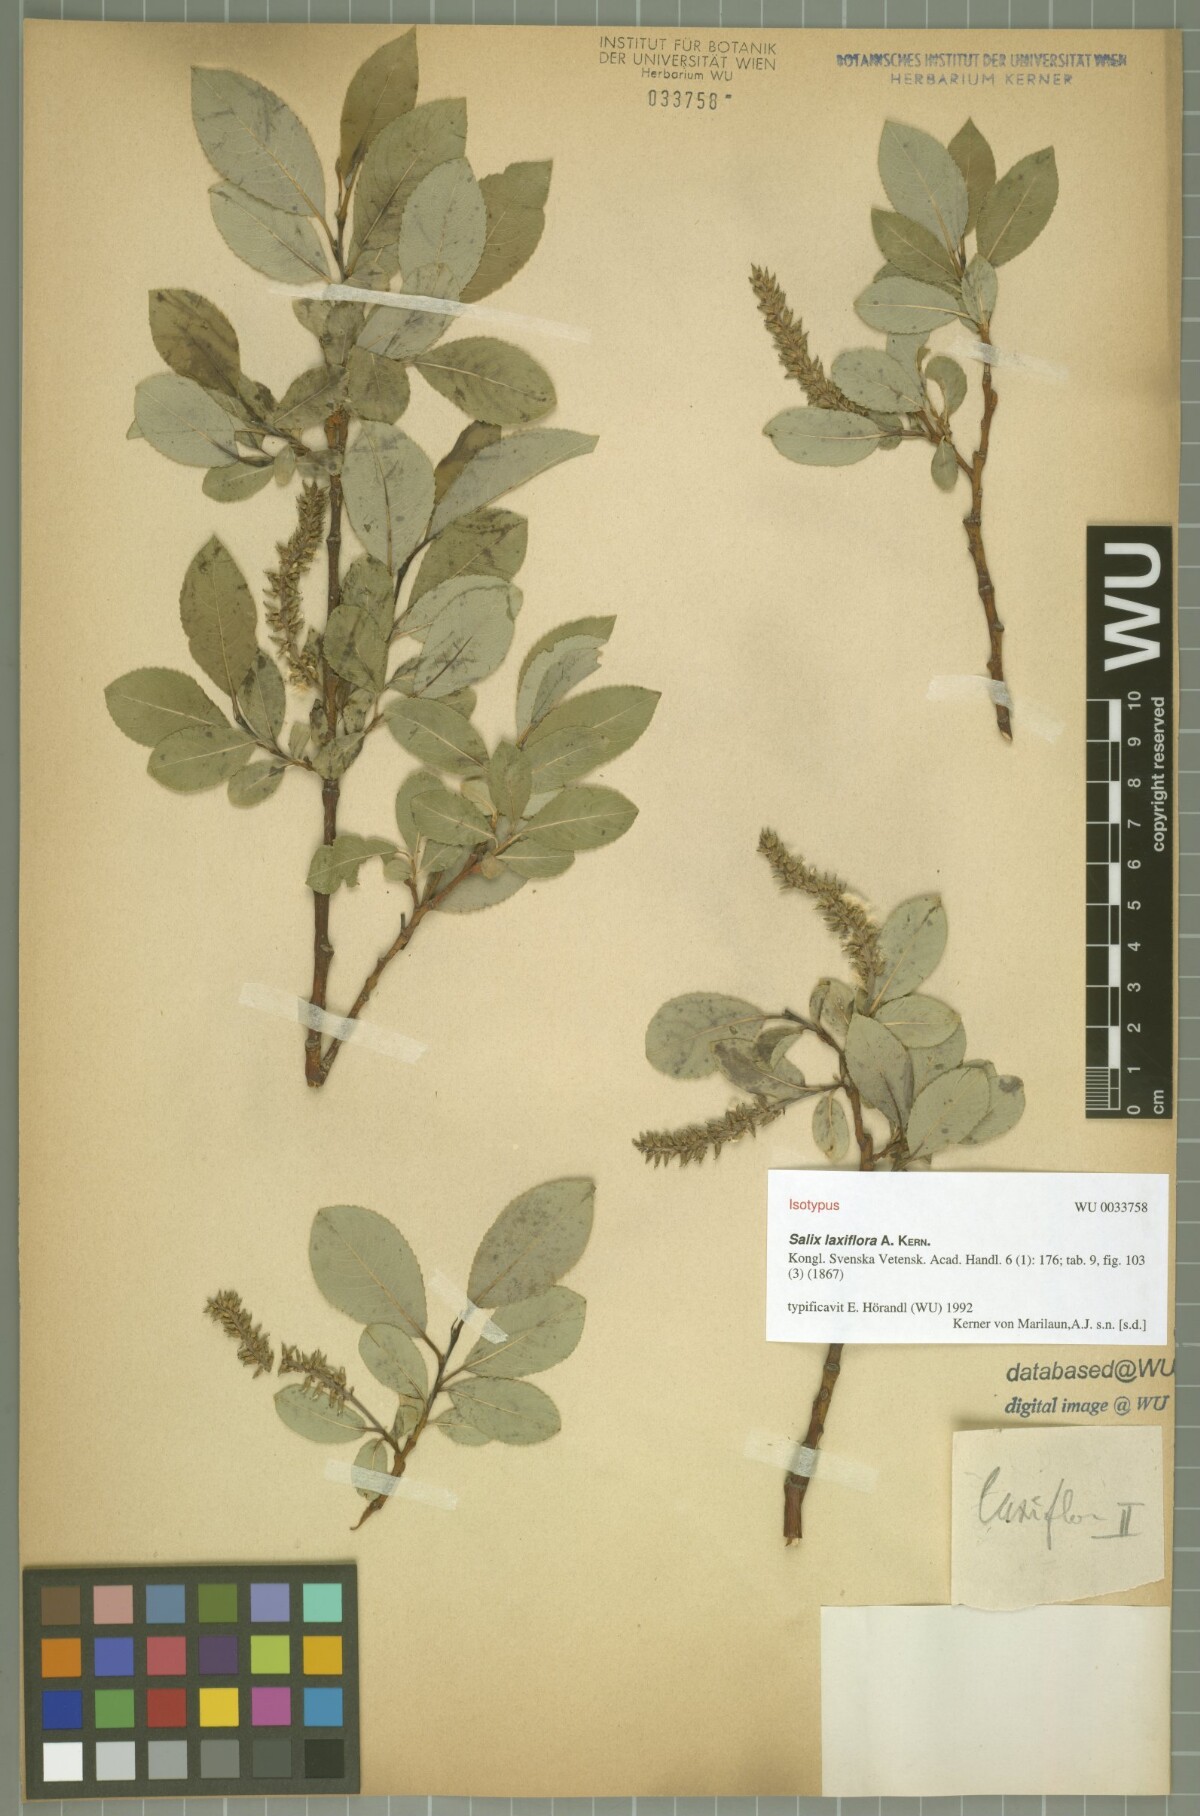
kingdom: Plantae
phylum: Tracheophyta
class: Magnoliopsida
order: Malpighiales
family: Salicaceae
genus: Salix
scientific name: Salix glabra
